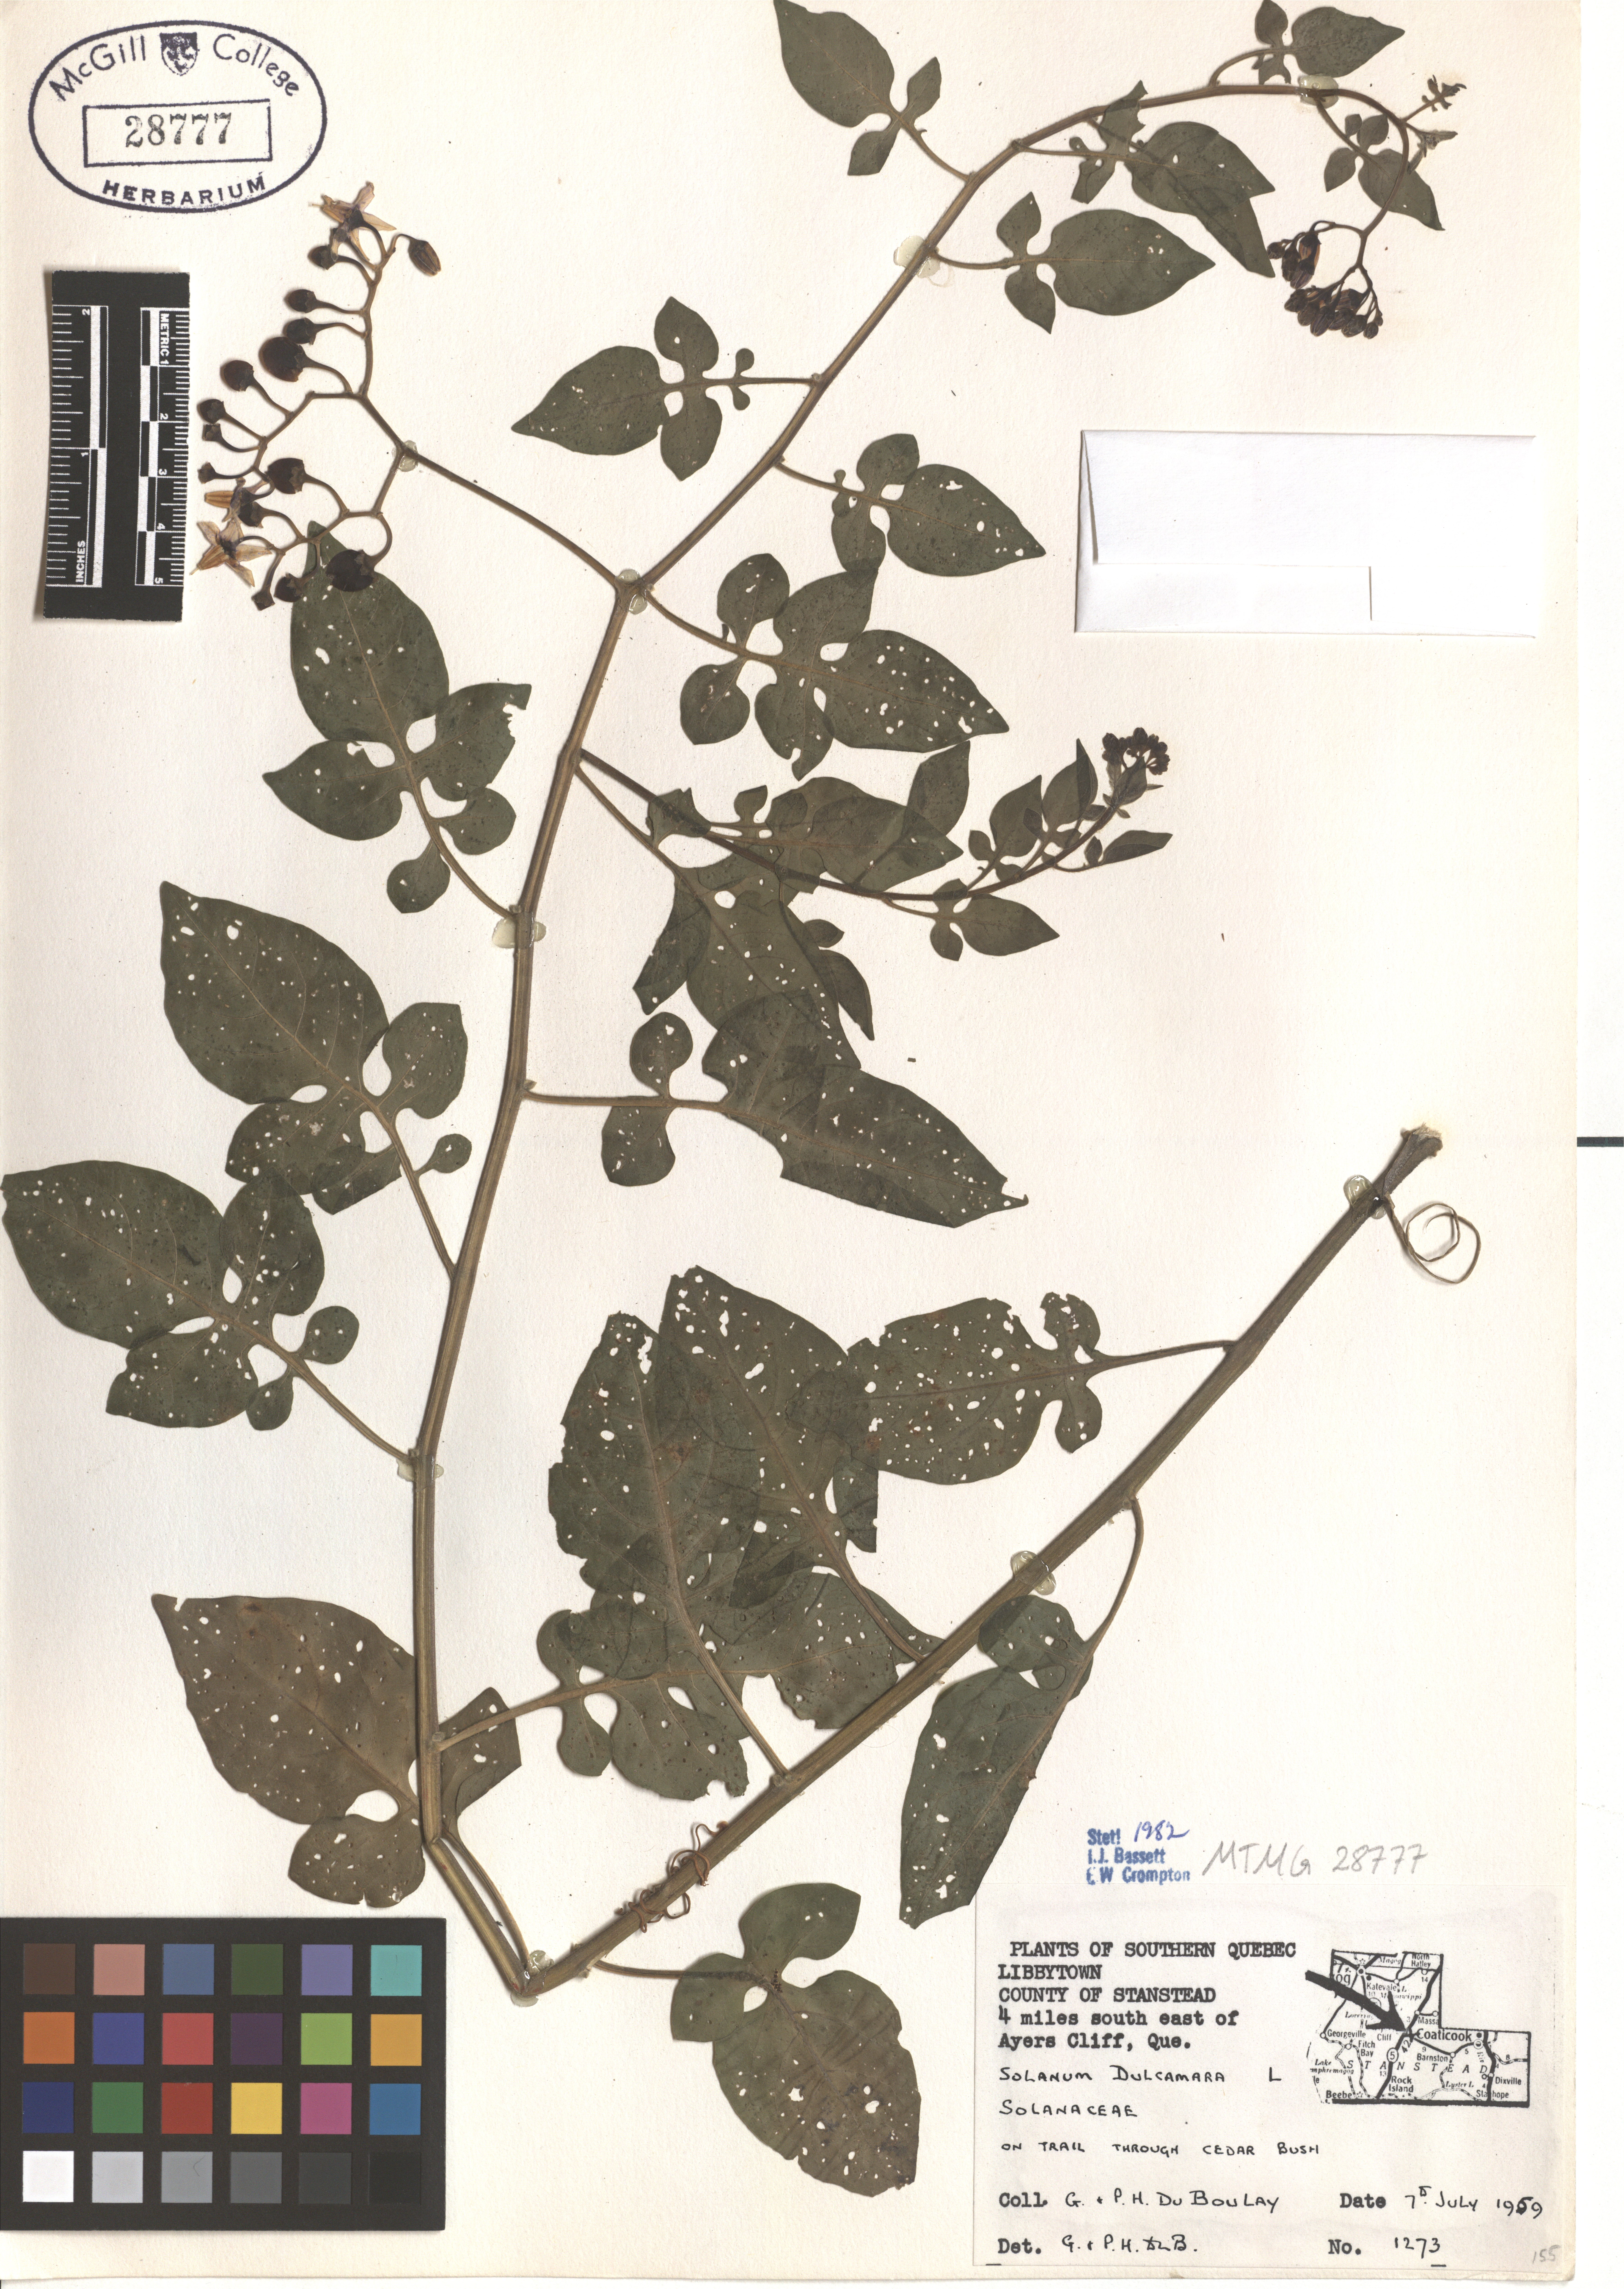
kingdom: Plantae
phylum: Tracheophyta
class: Magnoliopsida
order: Solanales
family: Solanaceae
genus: Solanum
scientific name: Solanum dulcamara
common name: Climbing nightshade
